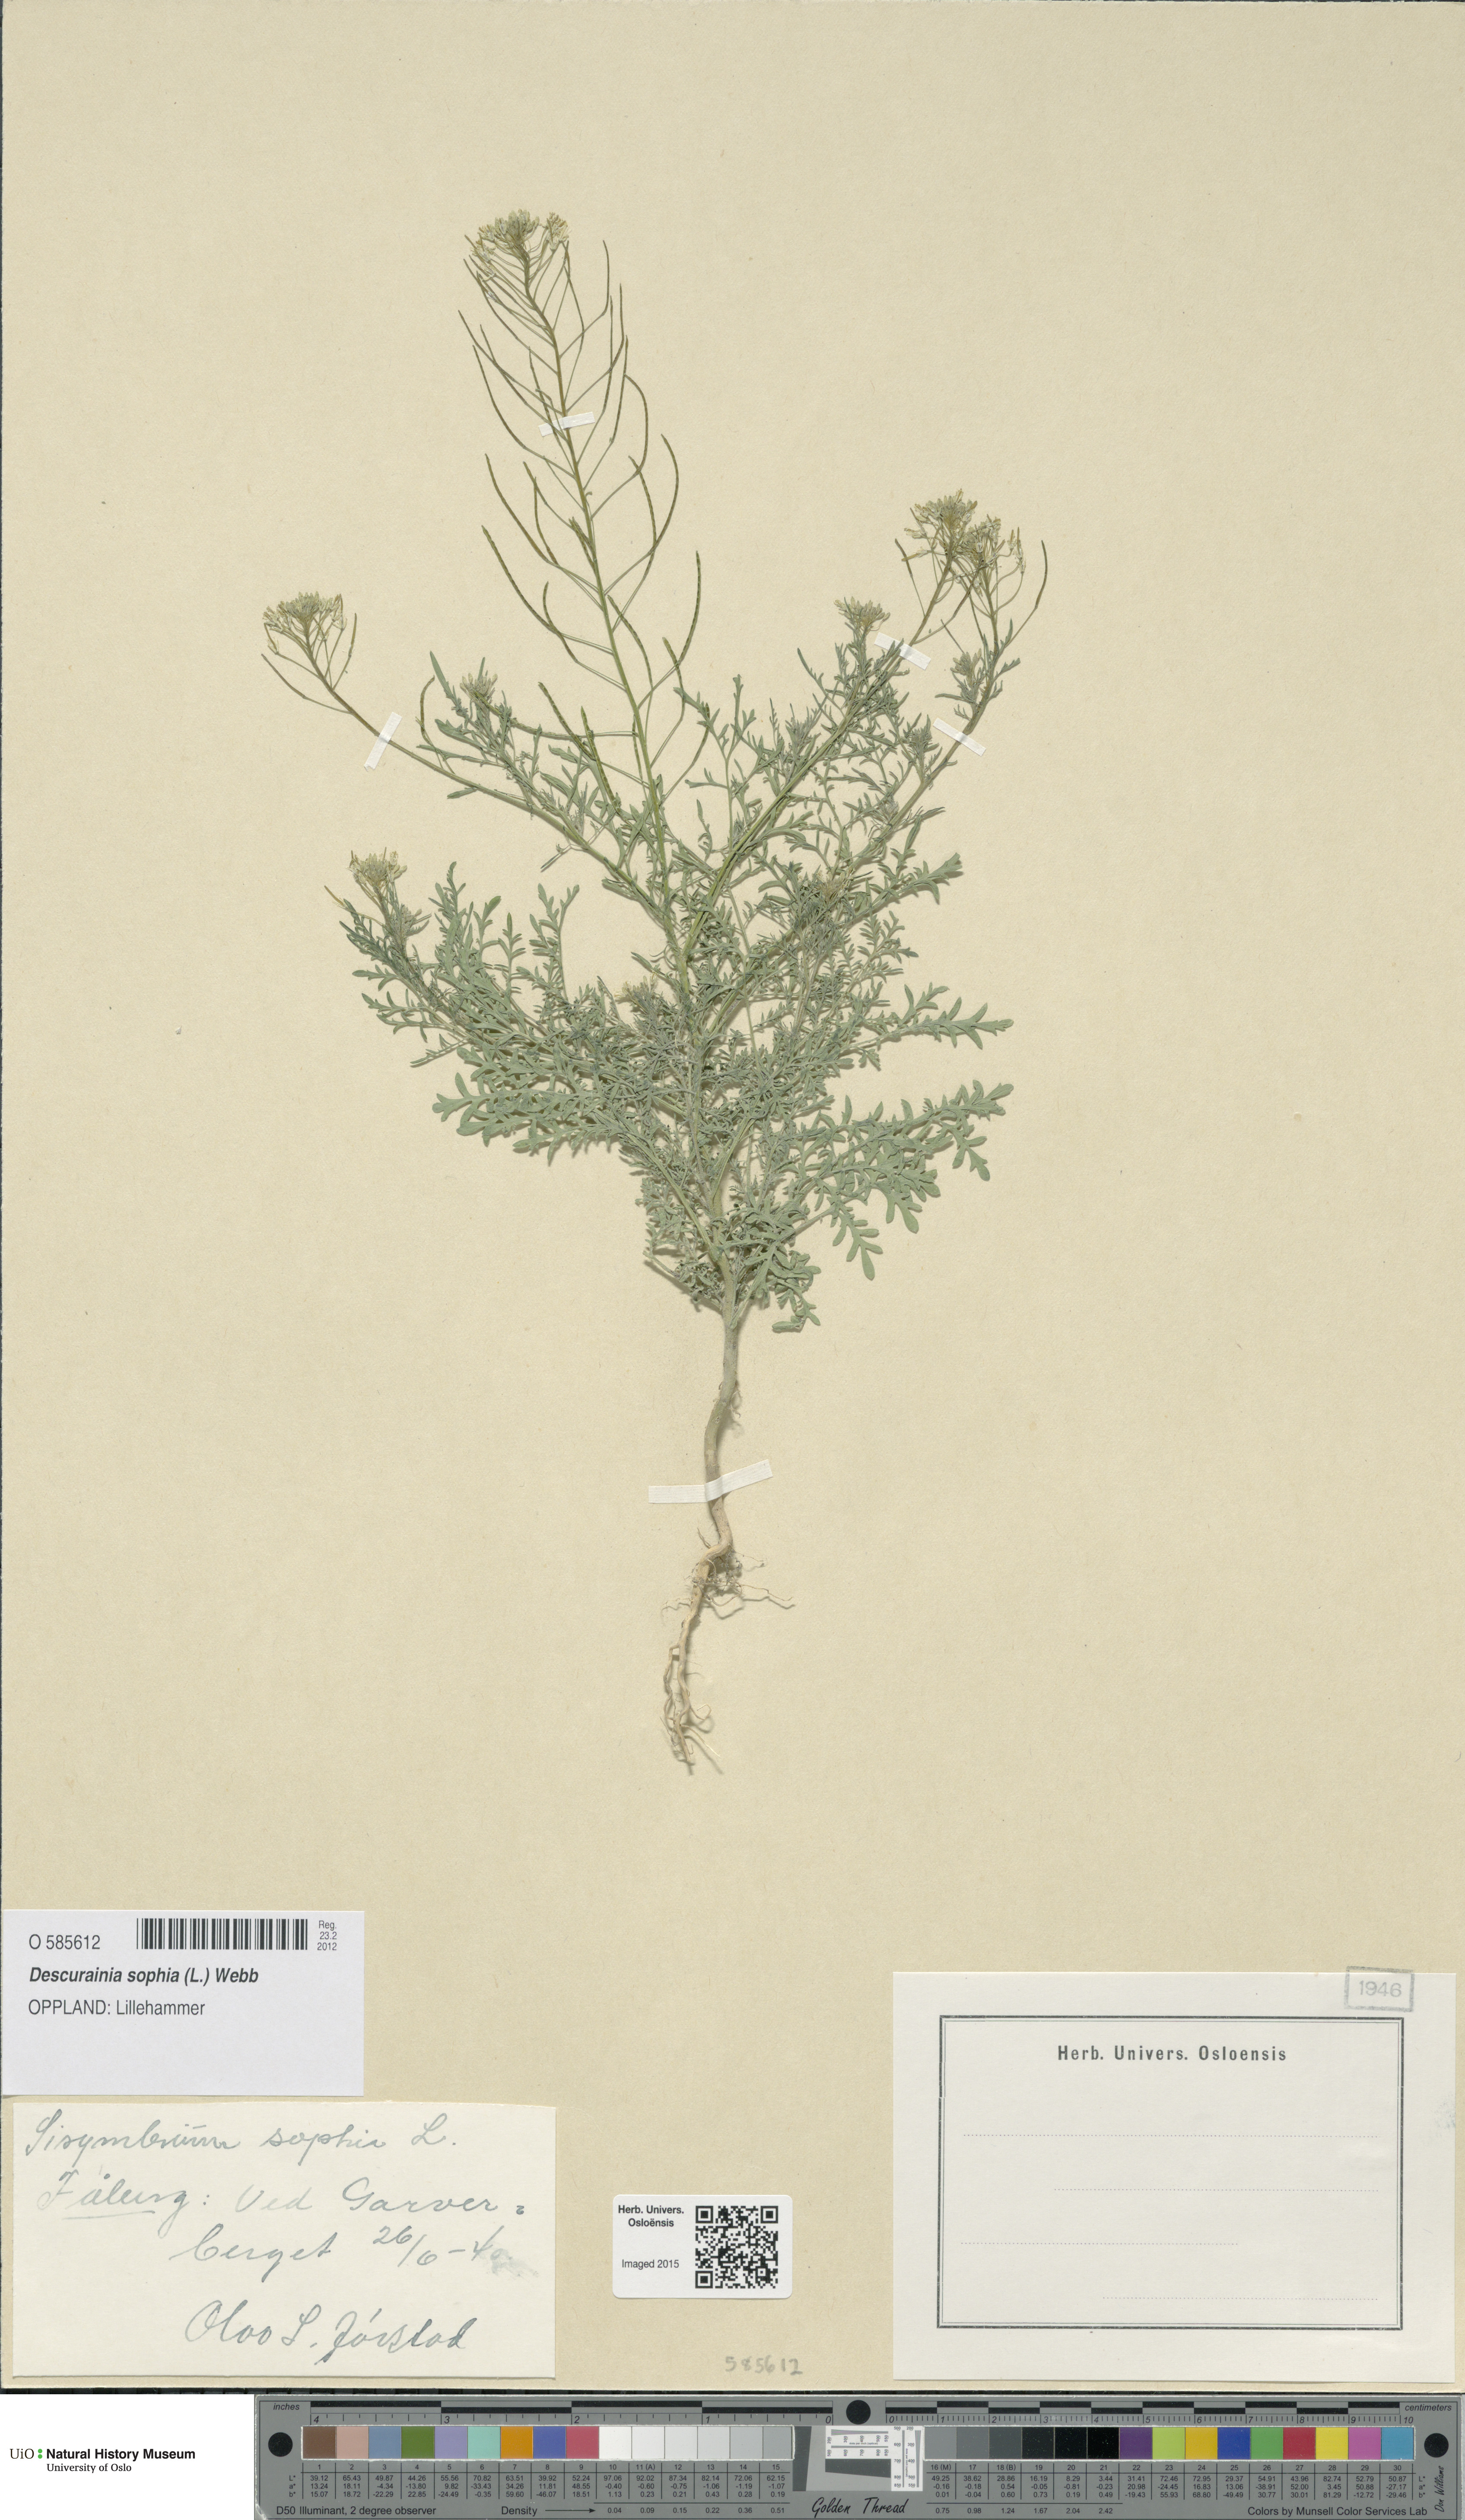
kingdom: Plantae
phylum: Tracheophyta
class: Magnoliopsida
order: Brassicales
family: Brassicaceae
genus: Descurainia
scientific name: Descurainia sophia
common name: Flixweed
